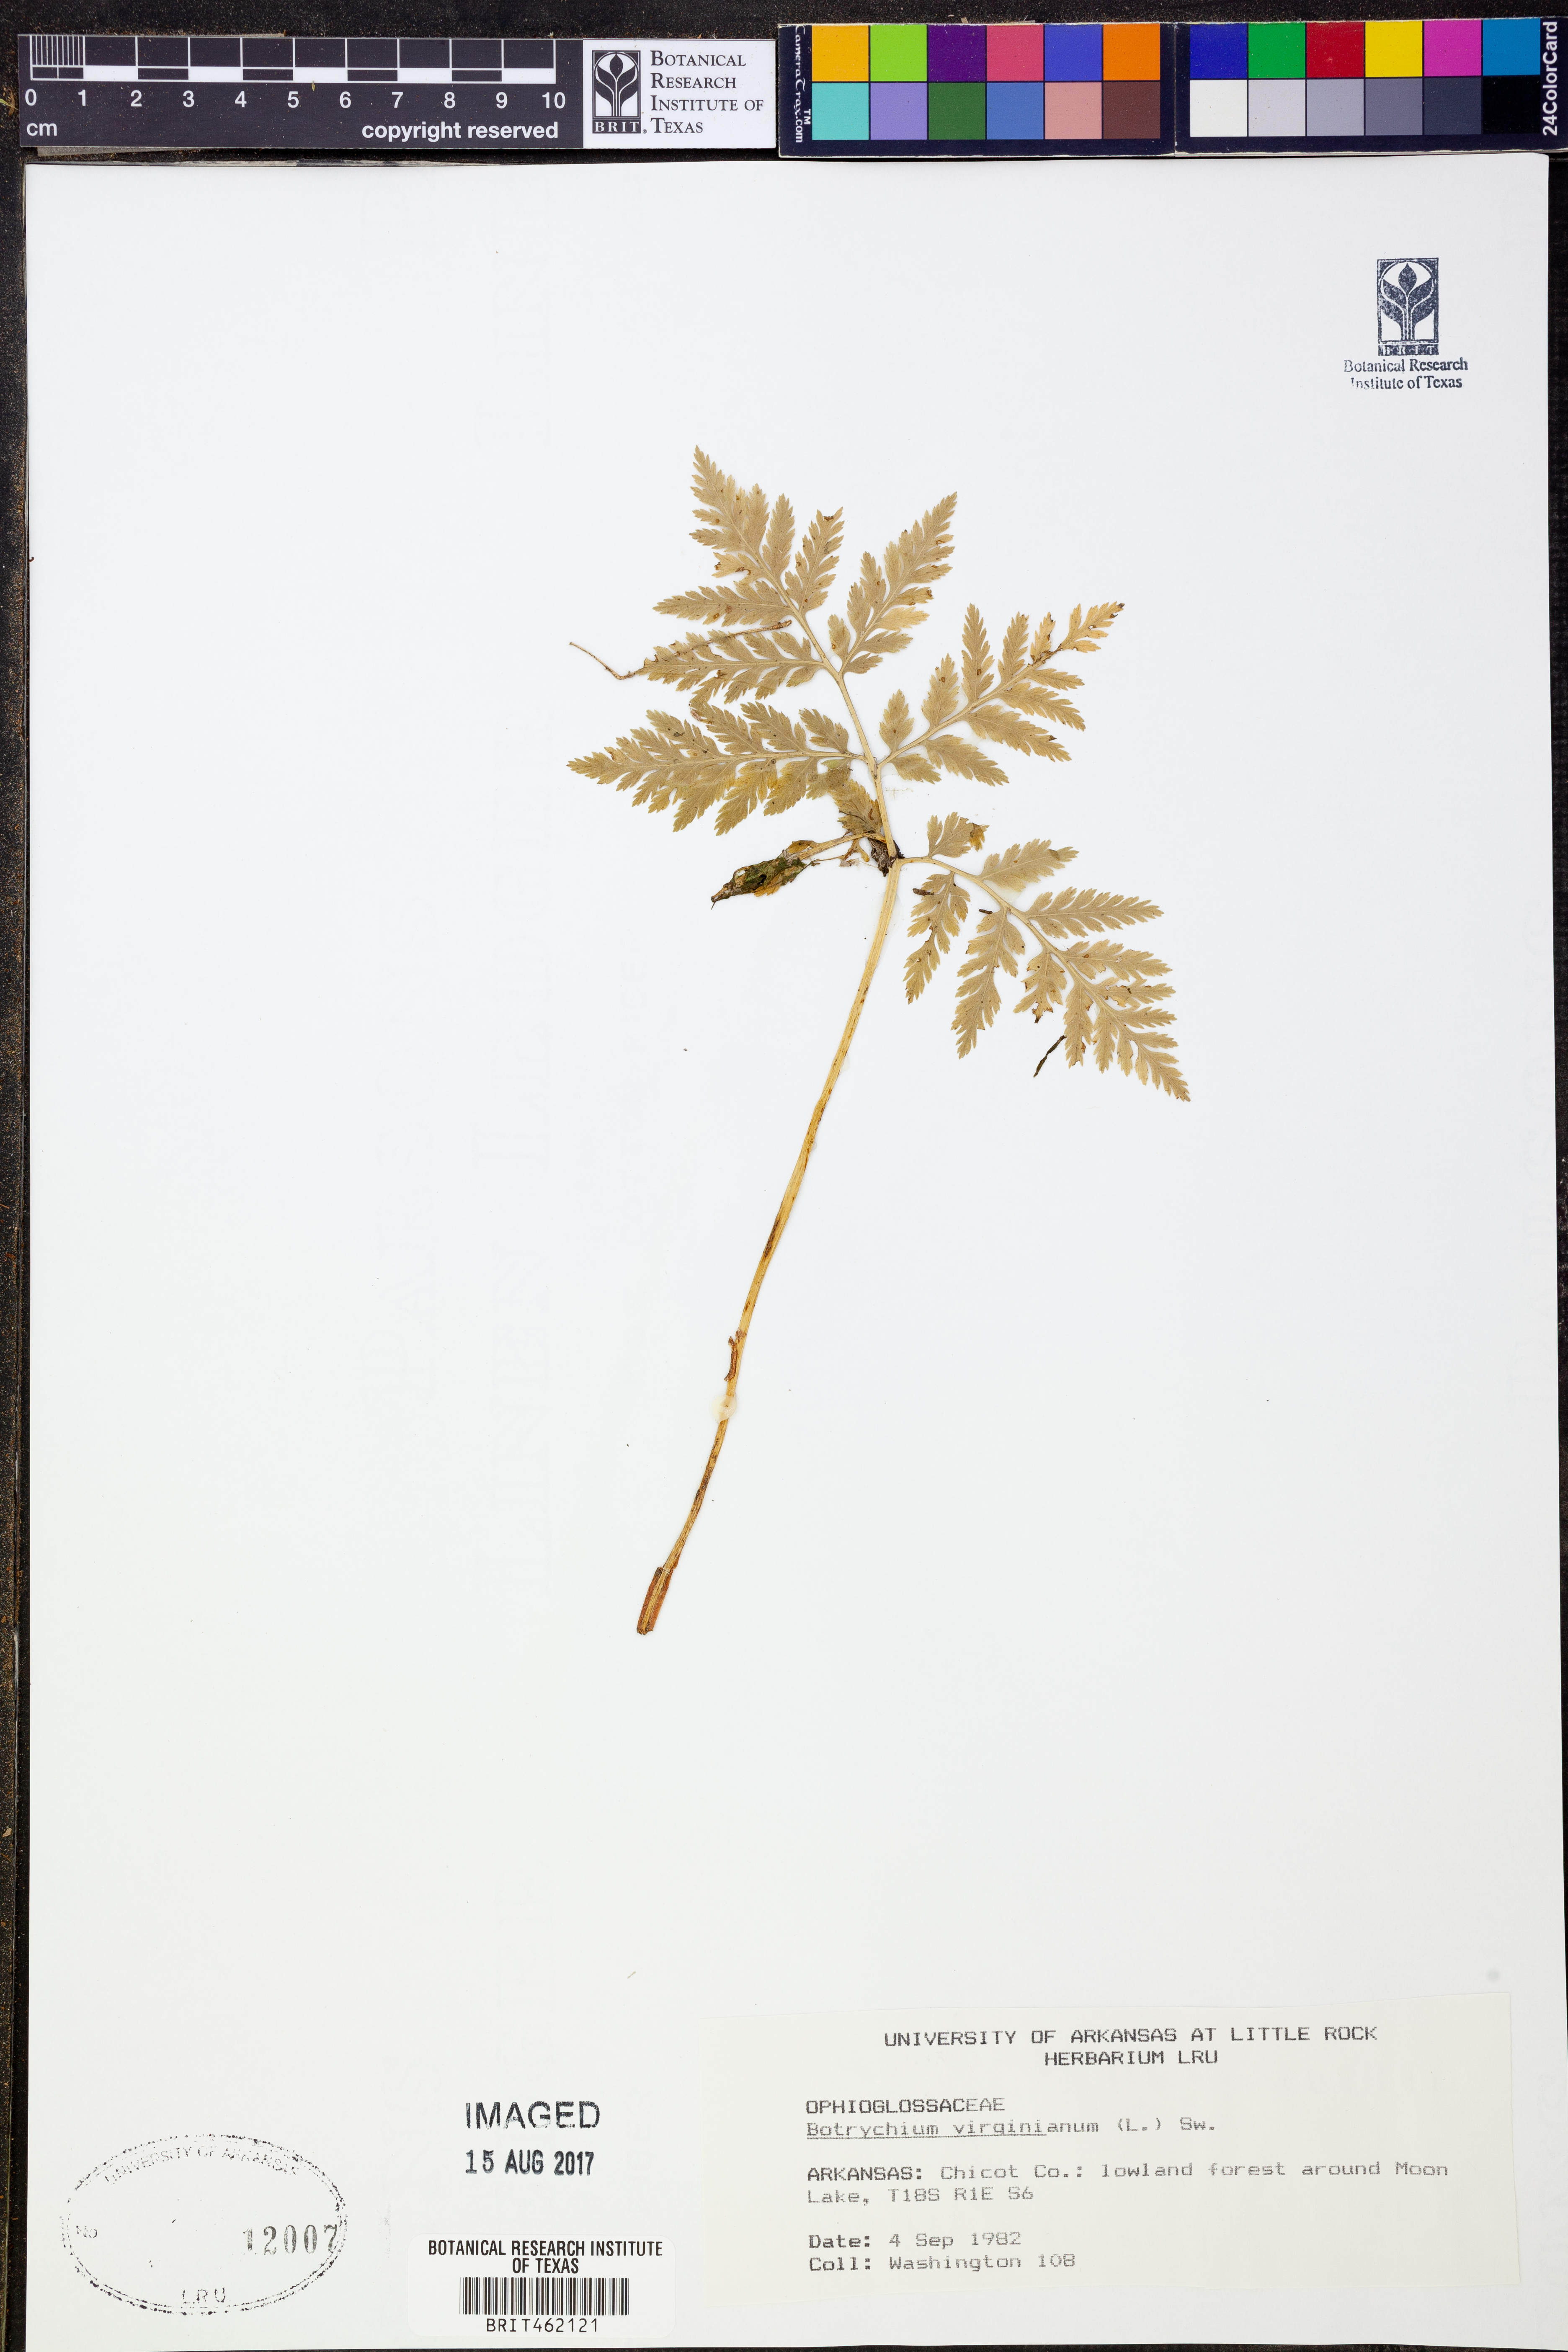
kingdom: Plantae
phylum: Tracheophyta
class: Polypodiopsida
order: Ophioglossales
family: Ophioglossaceae
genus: Botrypus
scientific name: Botrypus virginianus
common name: Common grapefern
